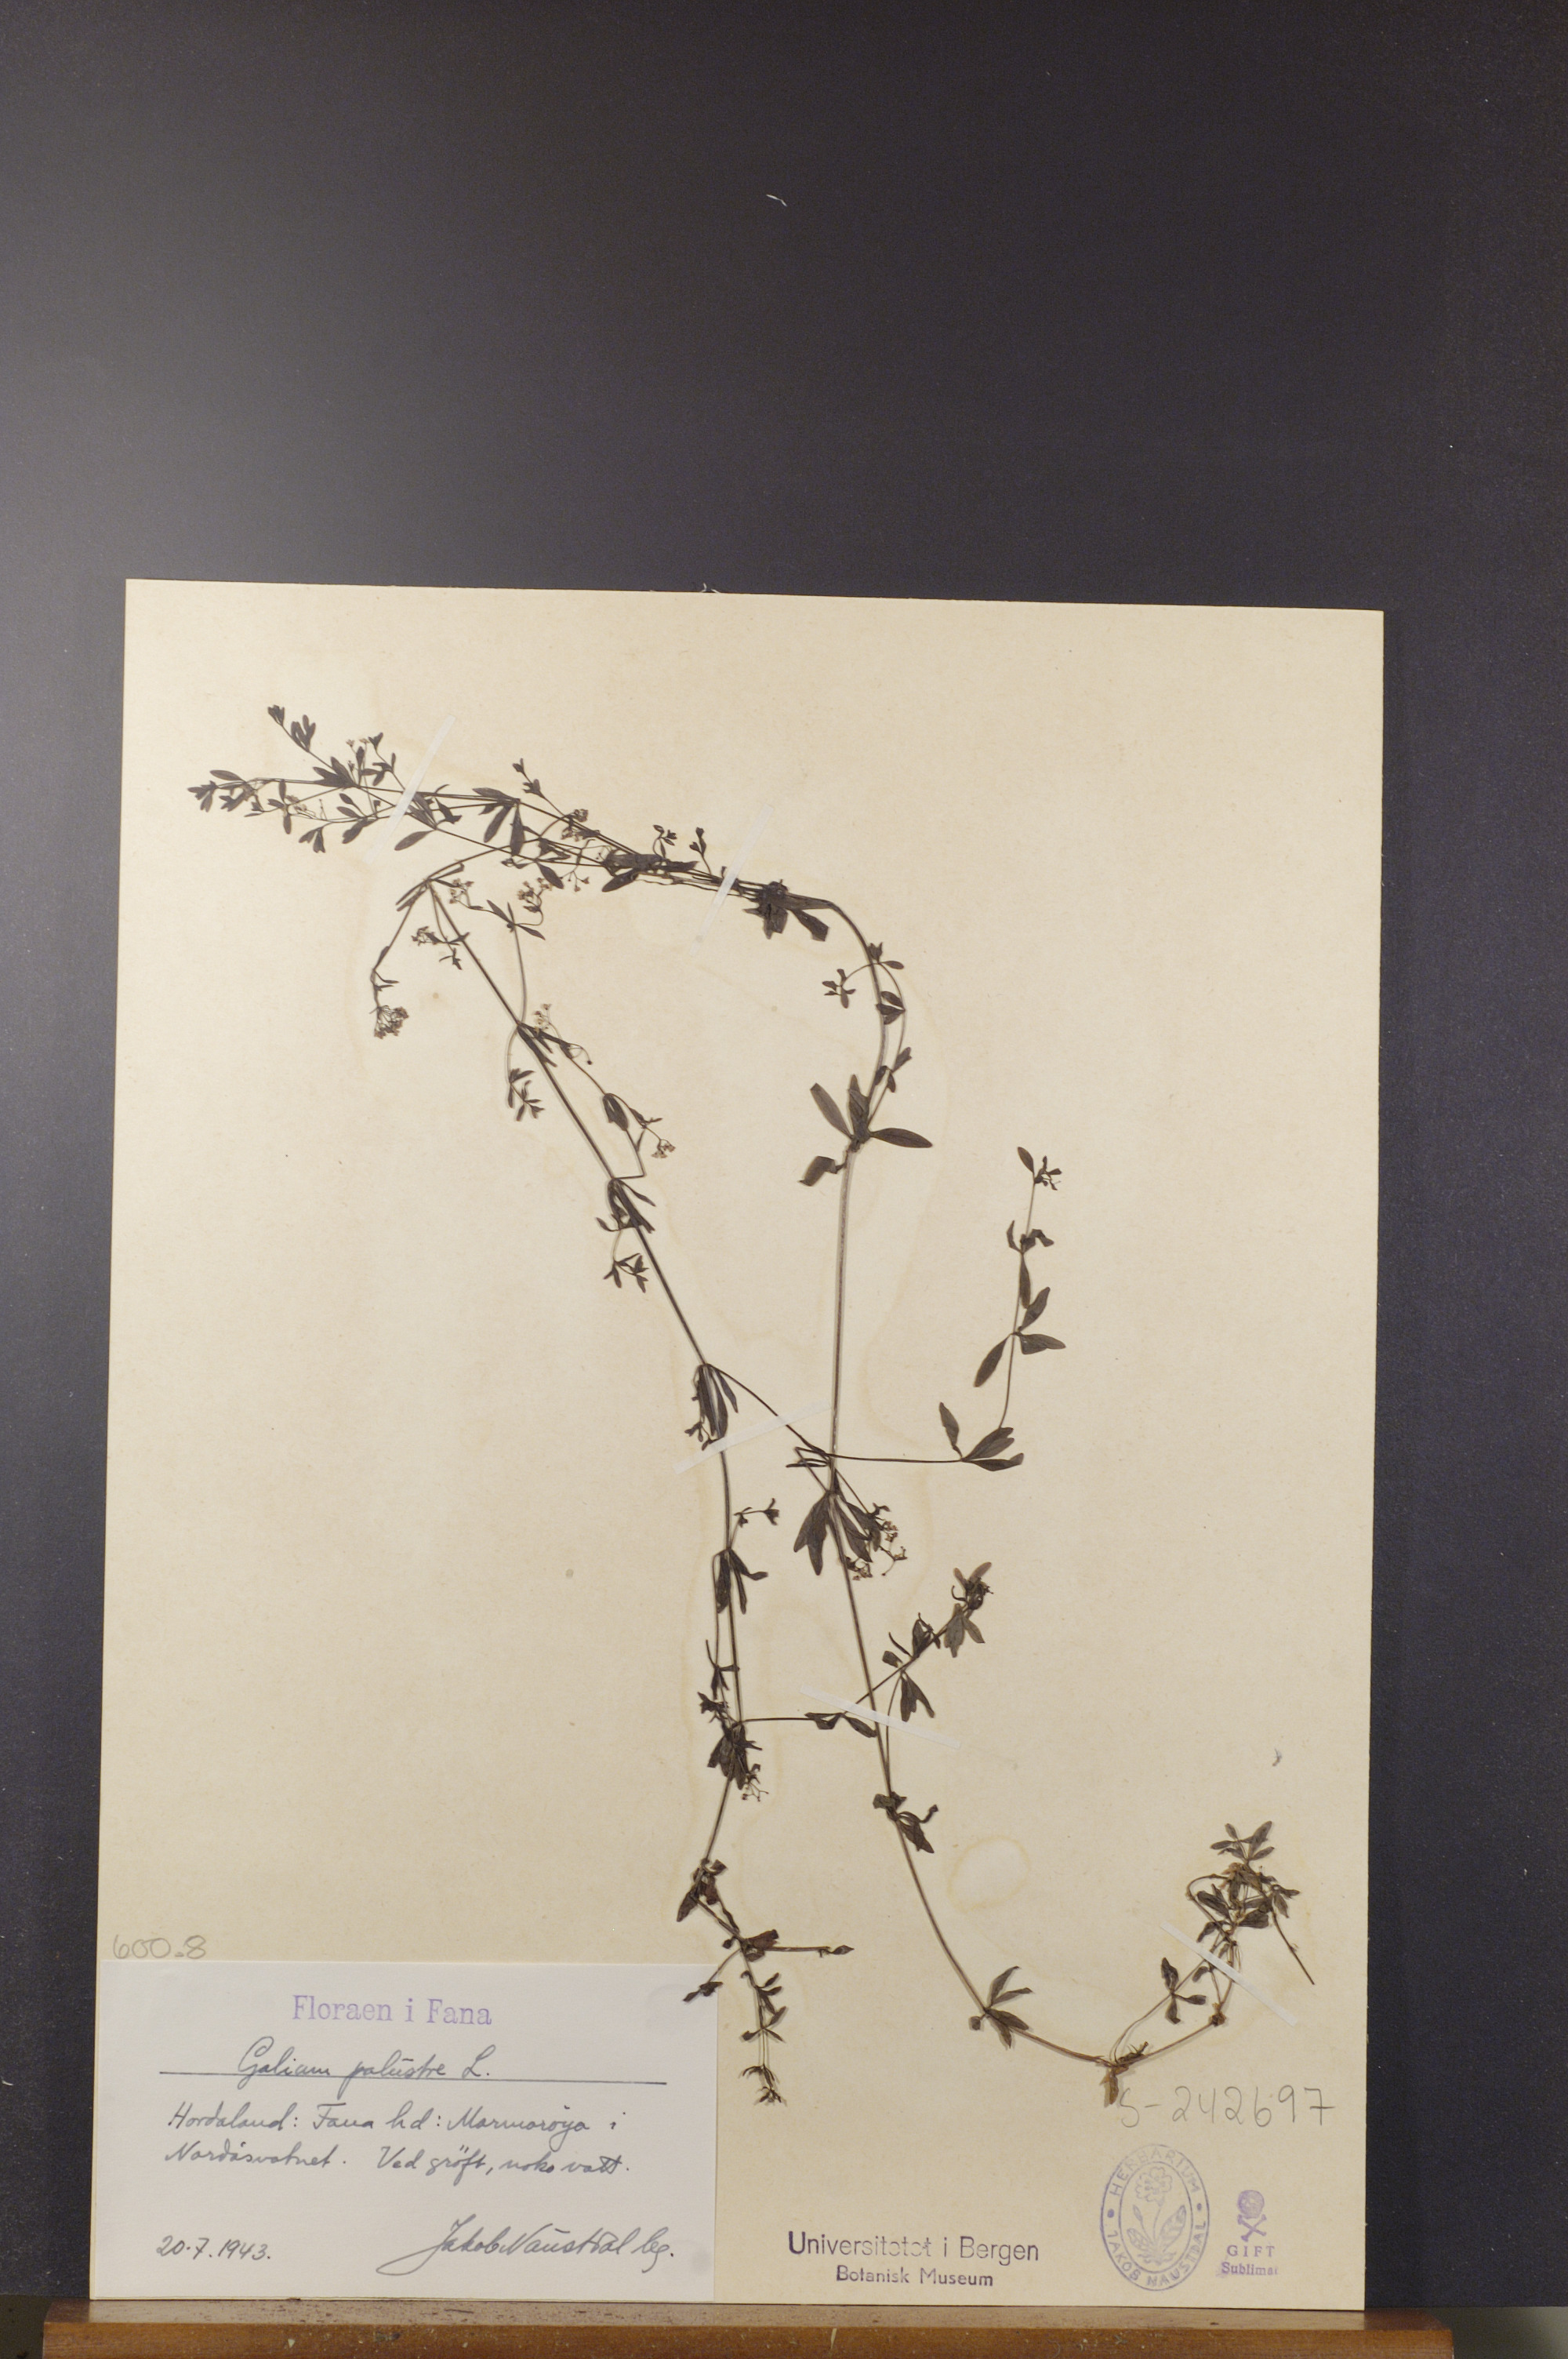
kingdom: Plantae
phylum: Tracheophyta
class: Magnoliopsida
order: Gentianales
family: Rubiaceae
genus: Galium
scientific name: Galium palustre
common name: Common marsh-bedstraw
